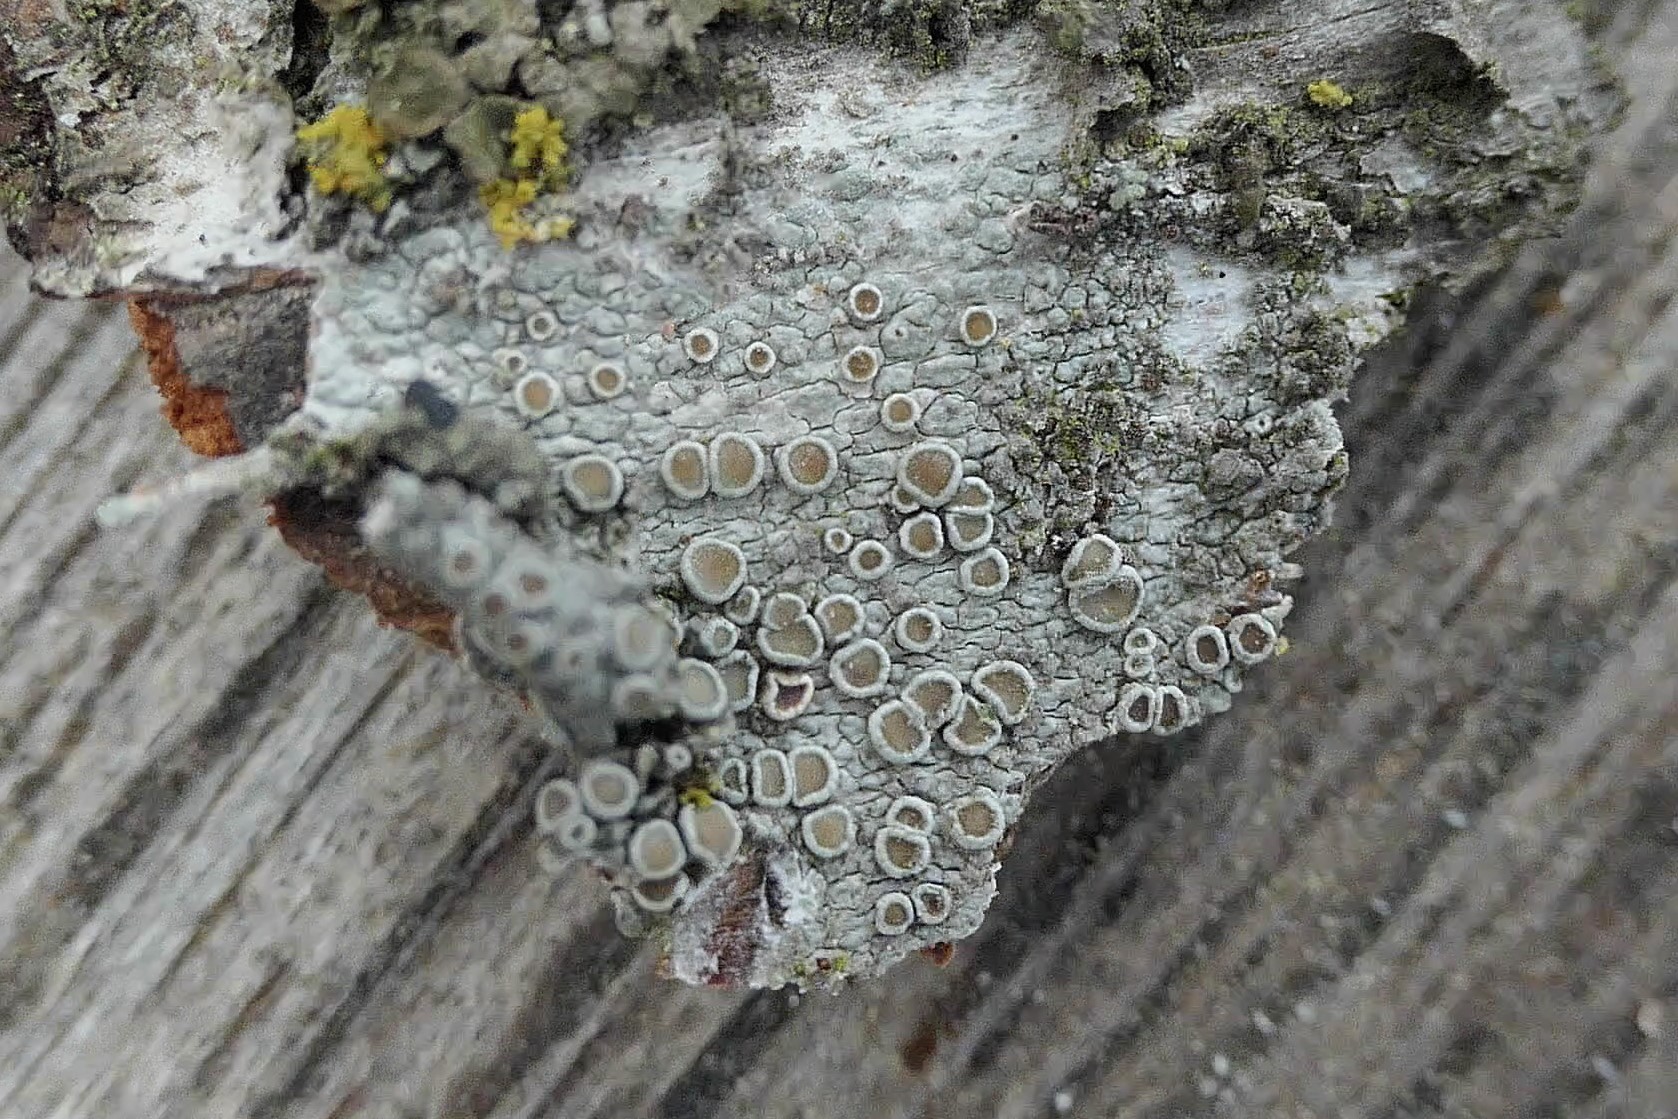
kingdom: Fungi
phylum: Ascomycota
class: Lecanoromycetes
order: Lecanorales
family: Lecanoraceae
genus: Lecanora
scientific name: Lecanora chlarotera
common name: brun kantskivelav
